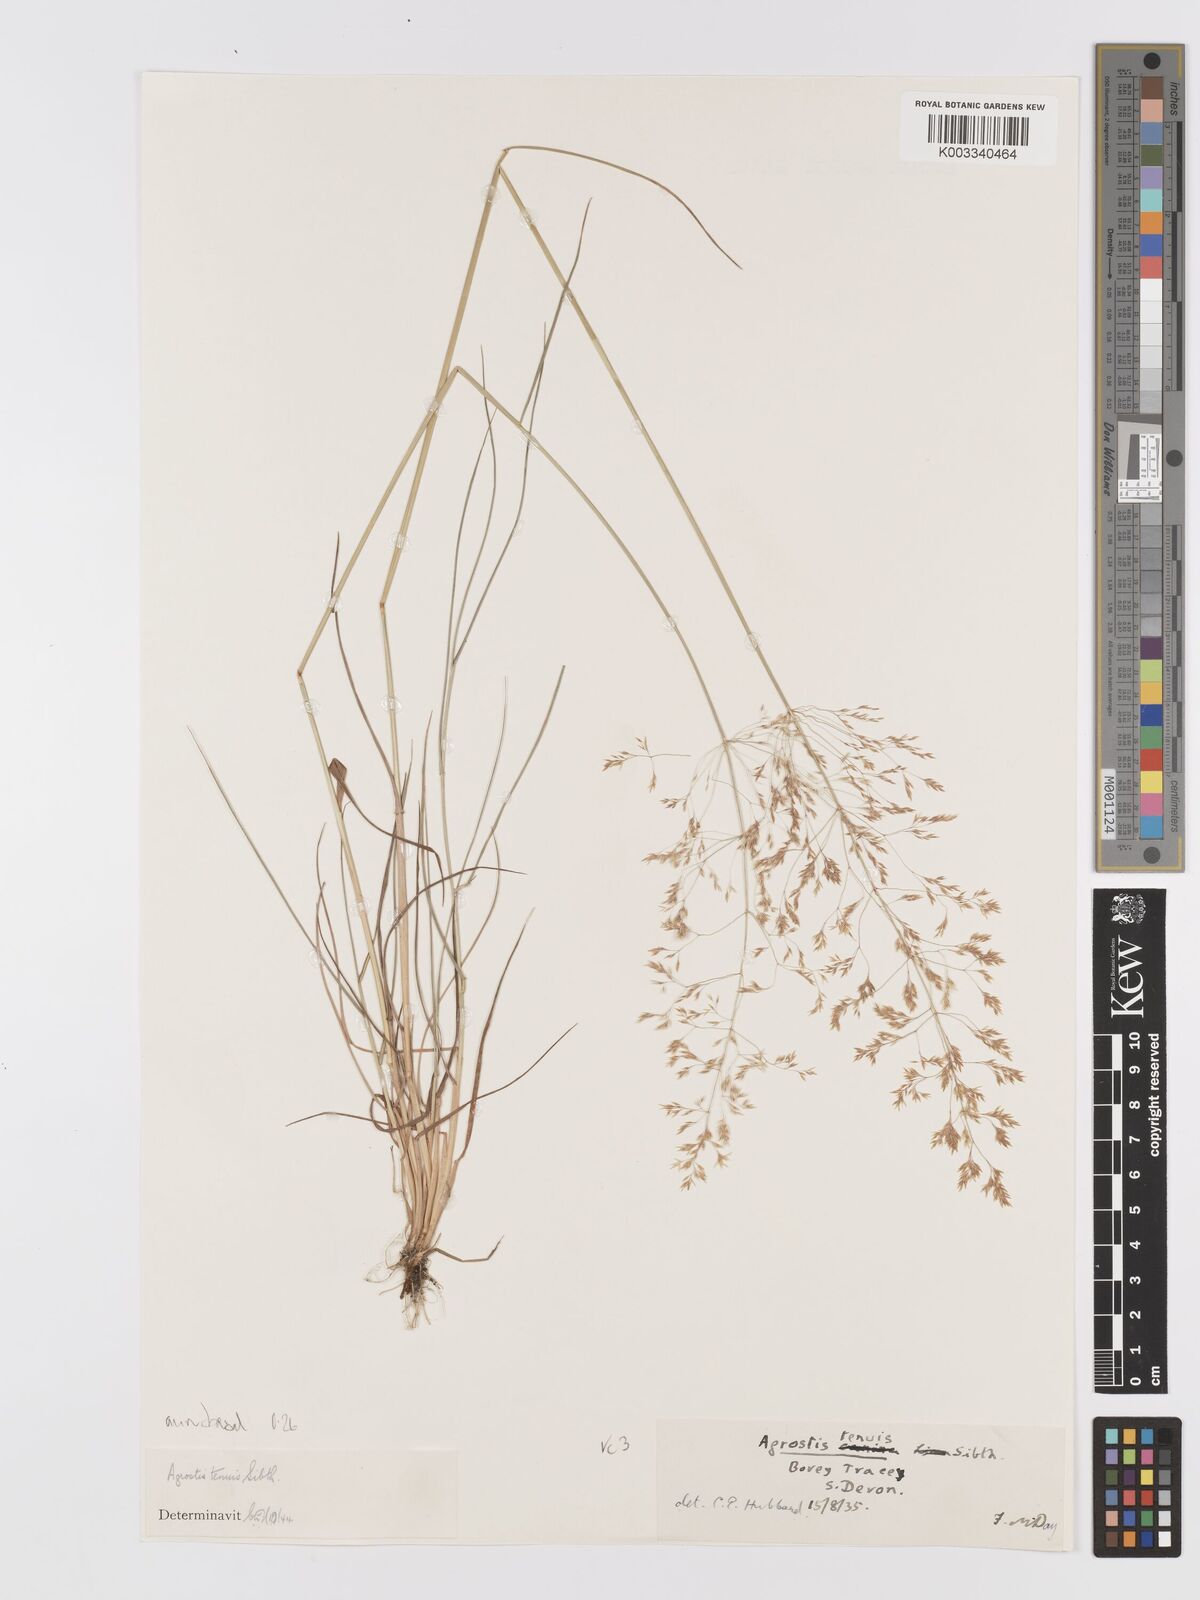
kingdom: Plantae
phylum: Tracheophyta
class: Liliopsida
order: Poales
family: Poaceae
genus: Agrostis
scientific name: Agrostis capillaris
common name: Colonial bentgrass
